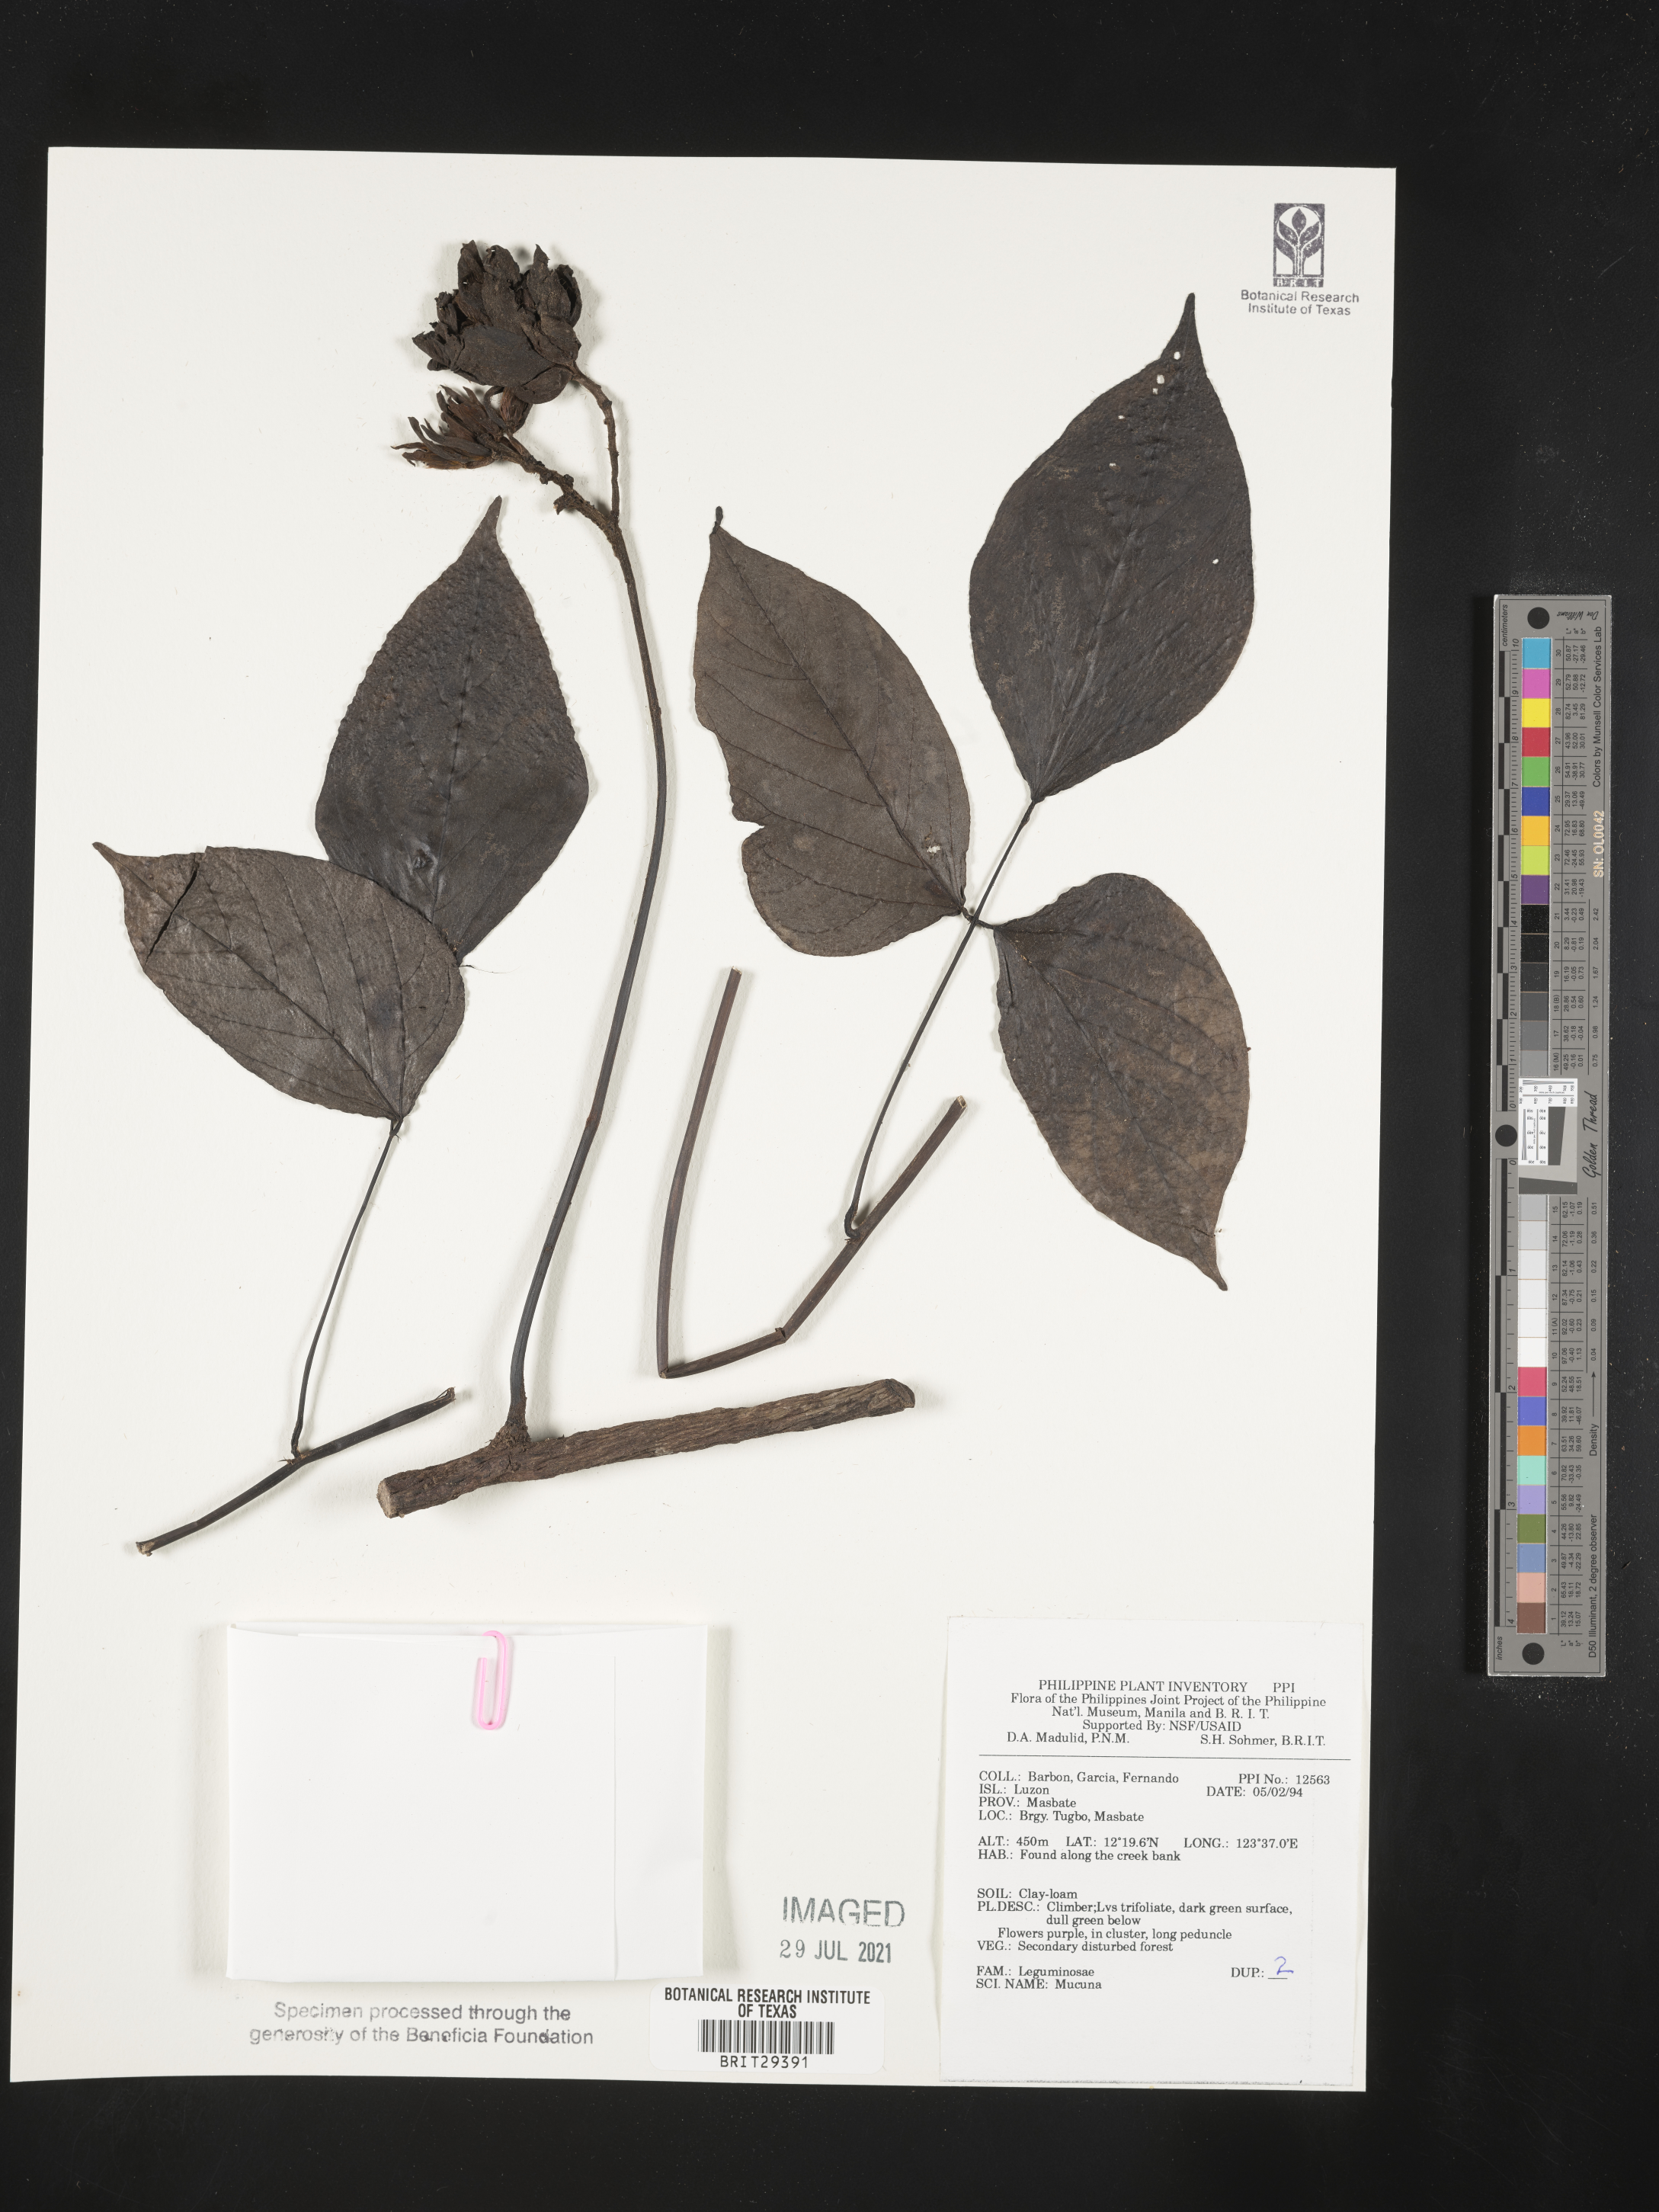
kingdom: Plantae
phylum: Tracheophyta
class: Magnoliopsida
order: Fabales
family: Fabaceae
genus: Mucuna
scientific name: Mucuna
